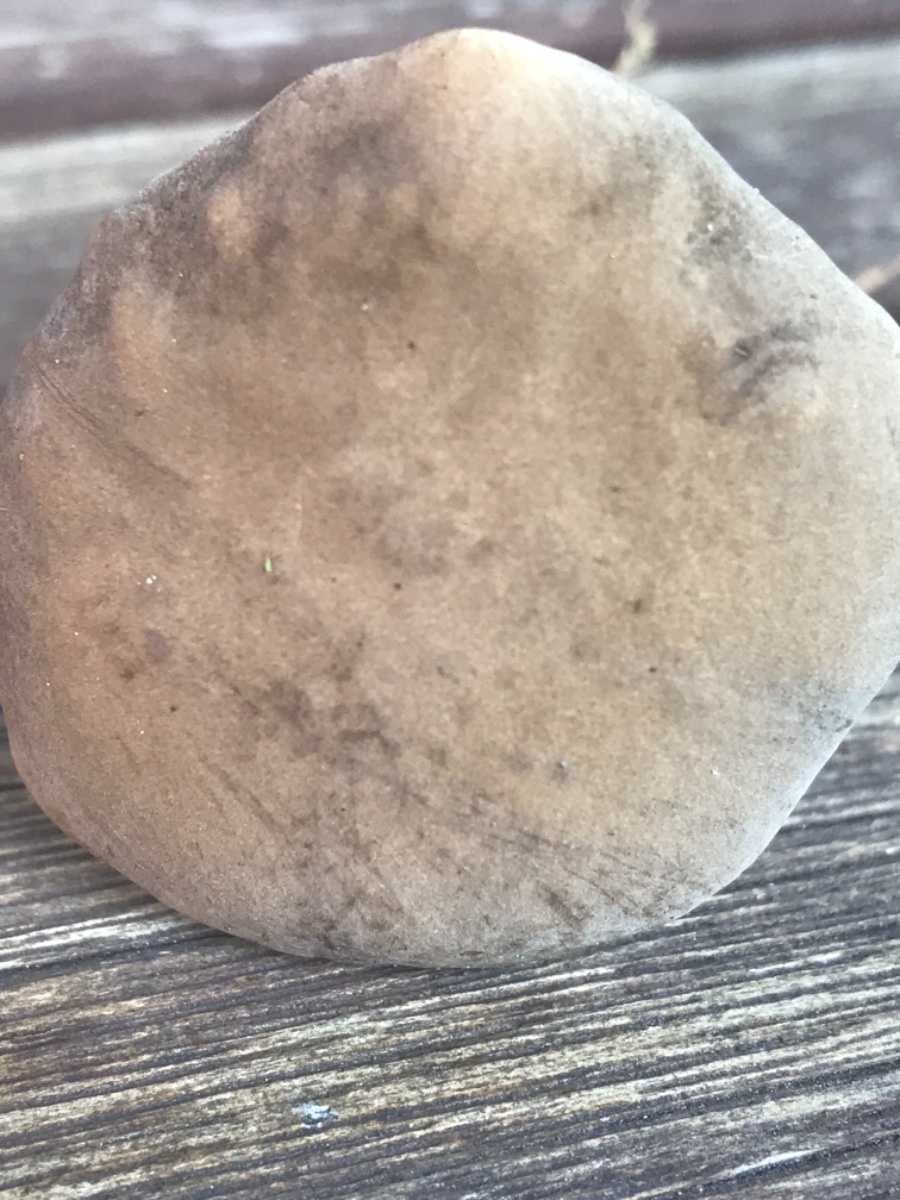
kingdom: Fungi
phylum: Basidiomycota
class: Agaricomycetes
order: Boletales
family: Boletaceae
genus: Hortiboletus
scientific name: Hortiboletus bubalinus
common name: aurora-rørhat
